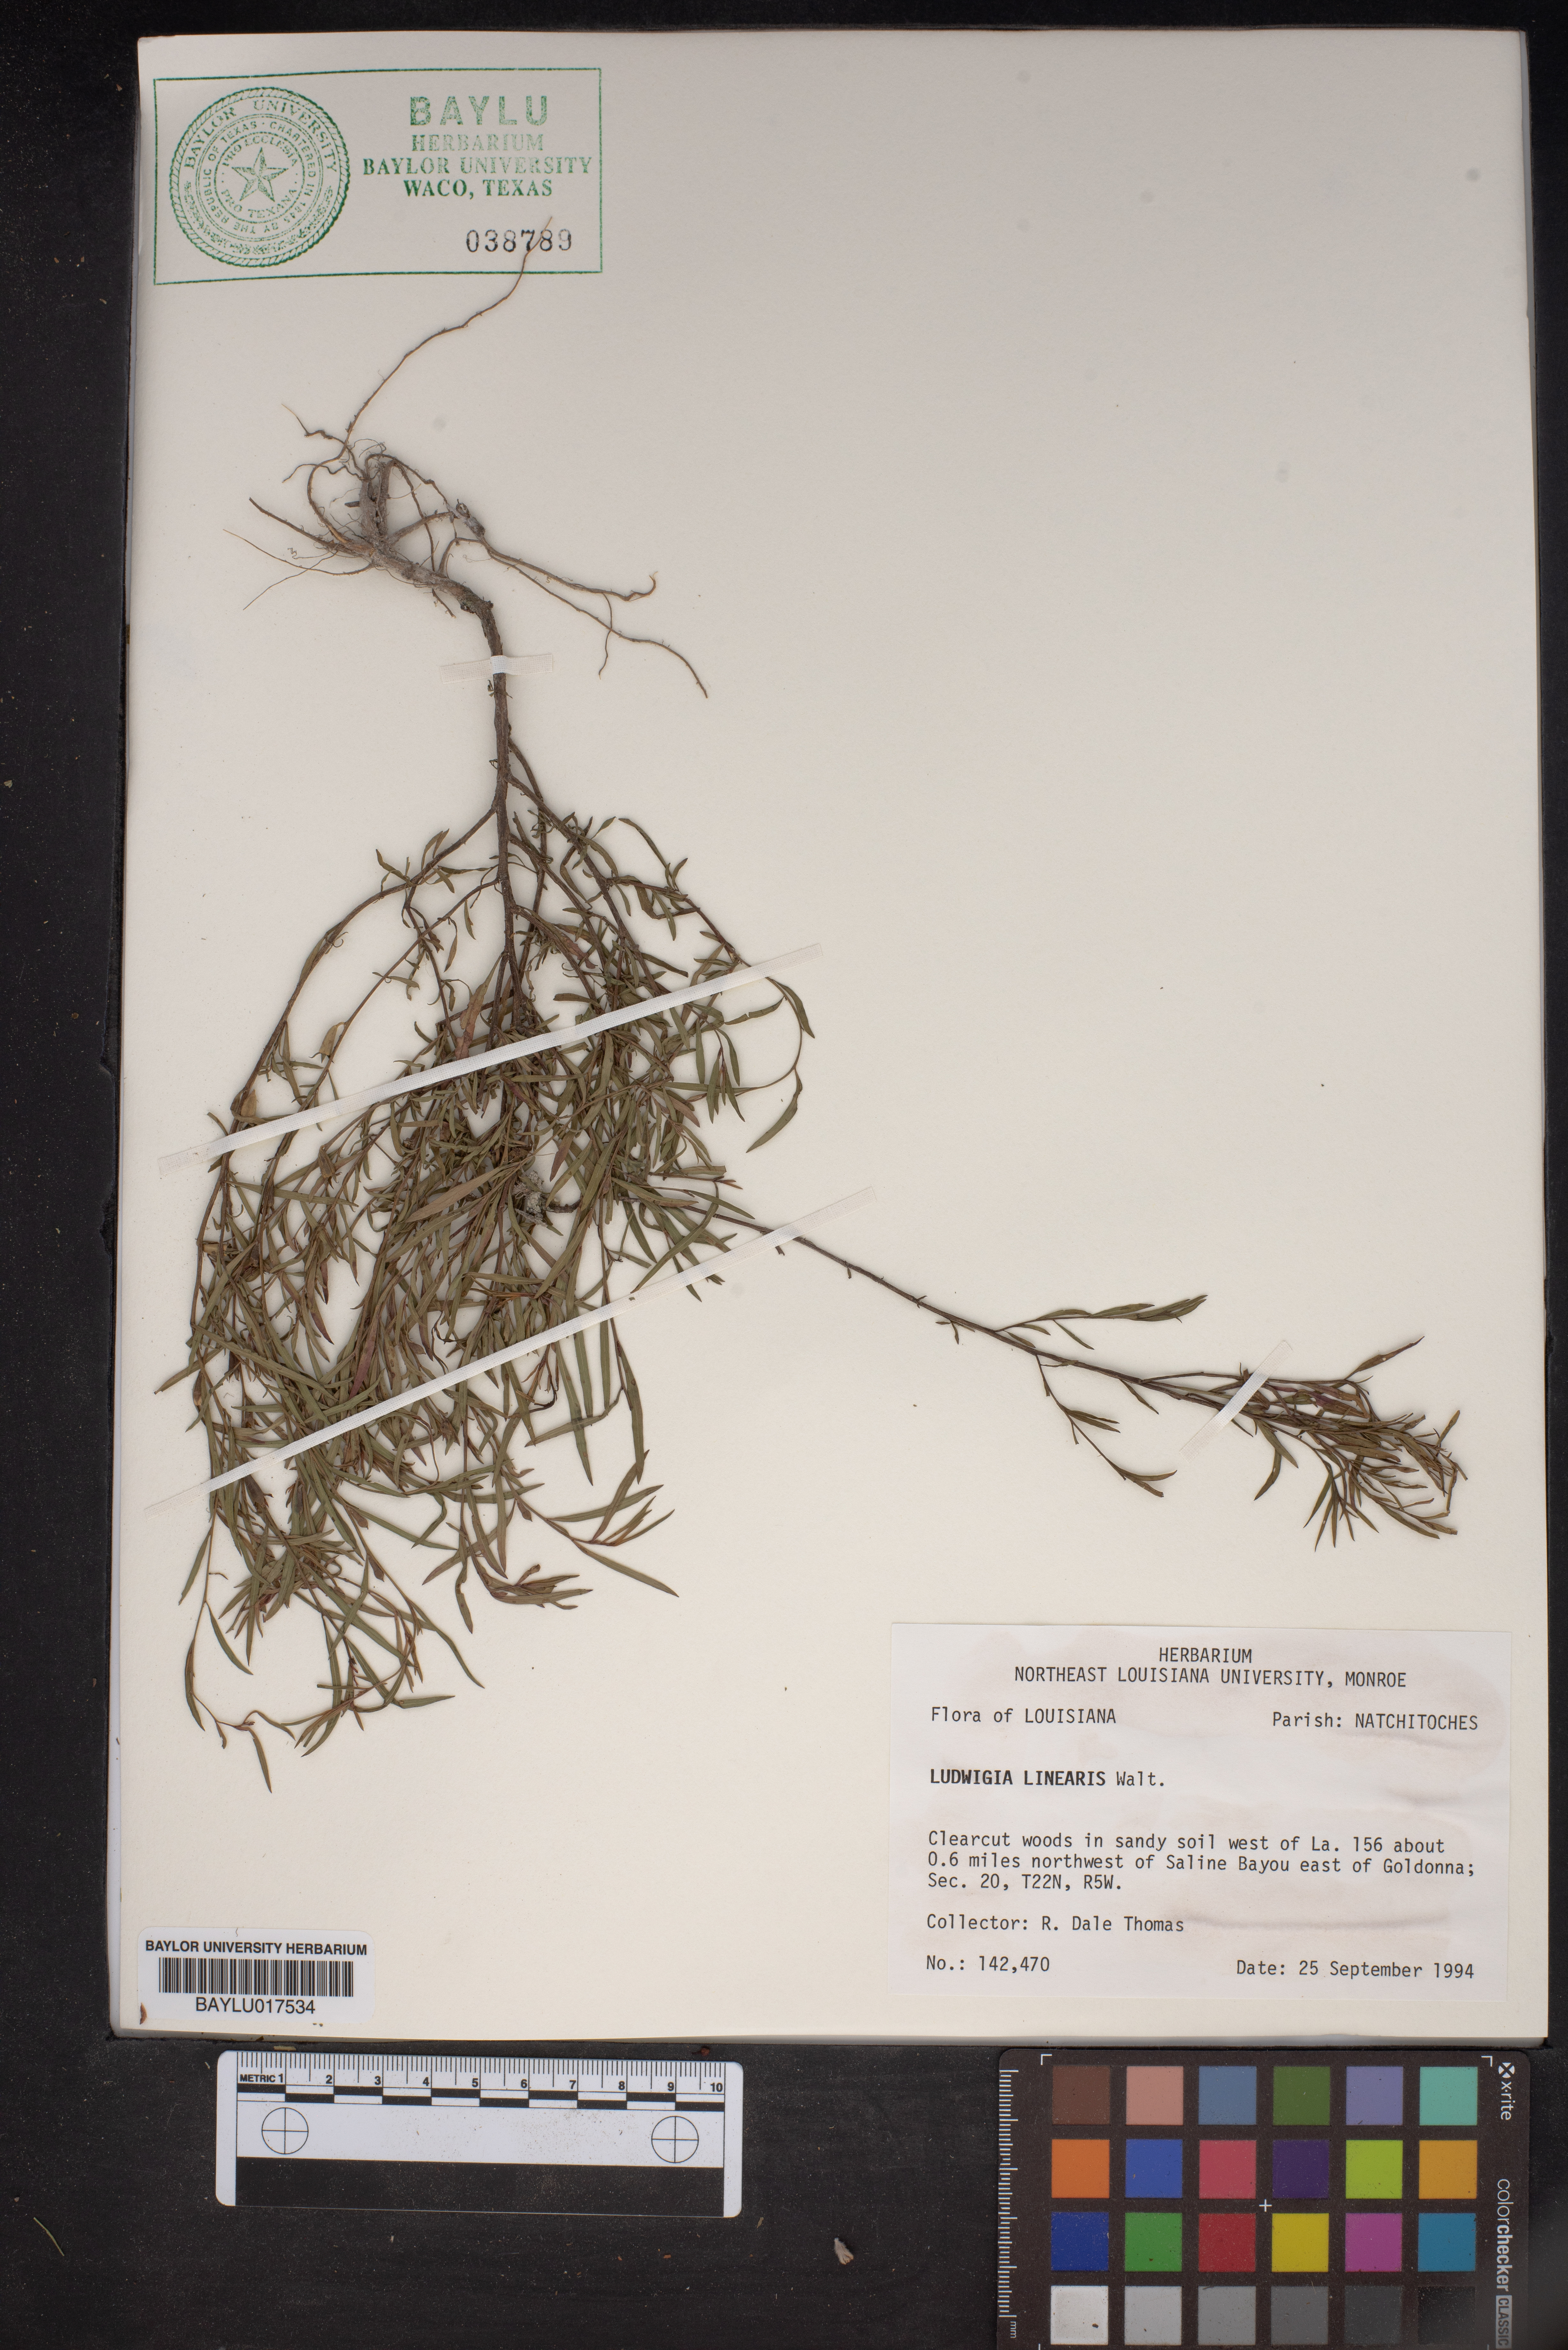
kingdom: Plantae
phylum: Tracheophyta
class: Magnoliopsida
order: Myrtales
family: Onagraceae
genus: Ludwigia
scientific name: Ludwigia linearis
